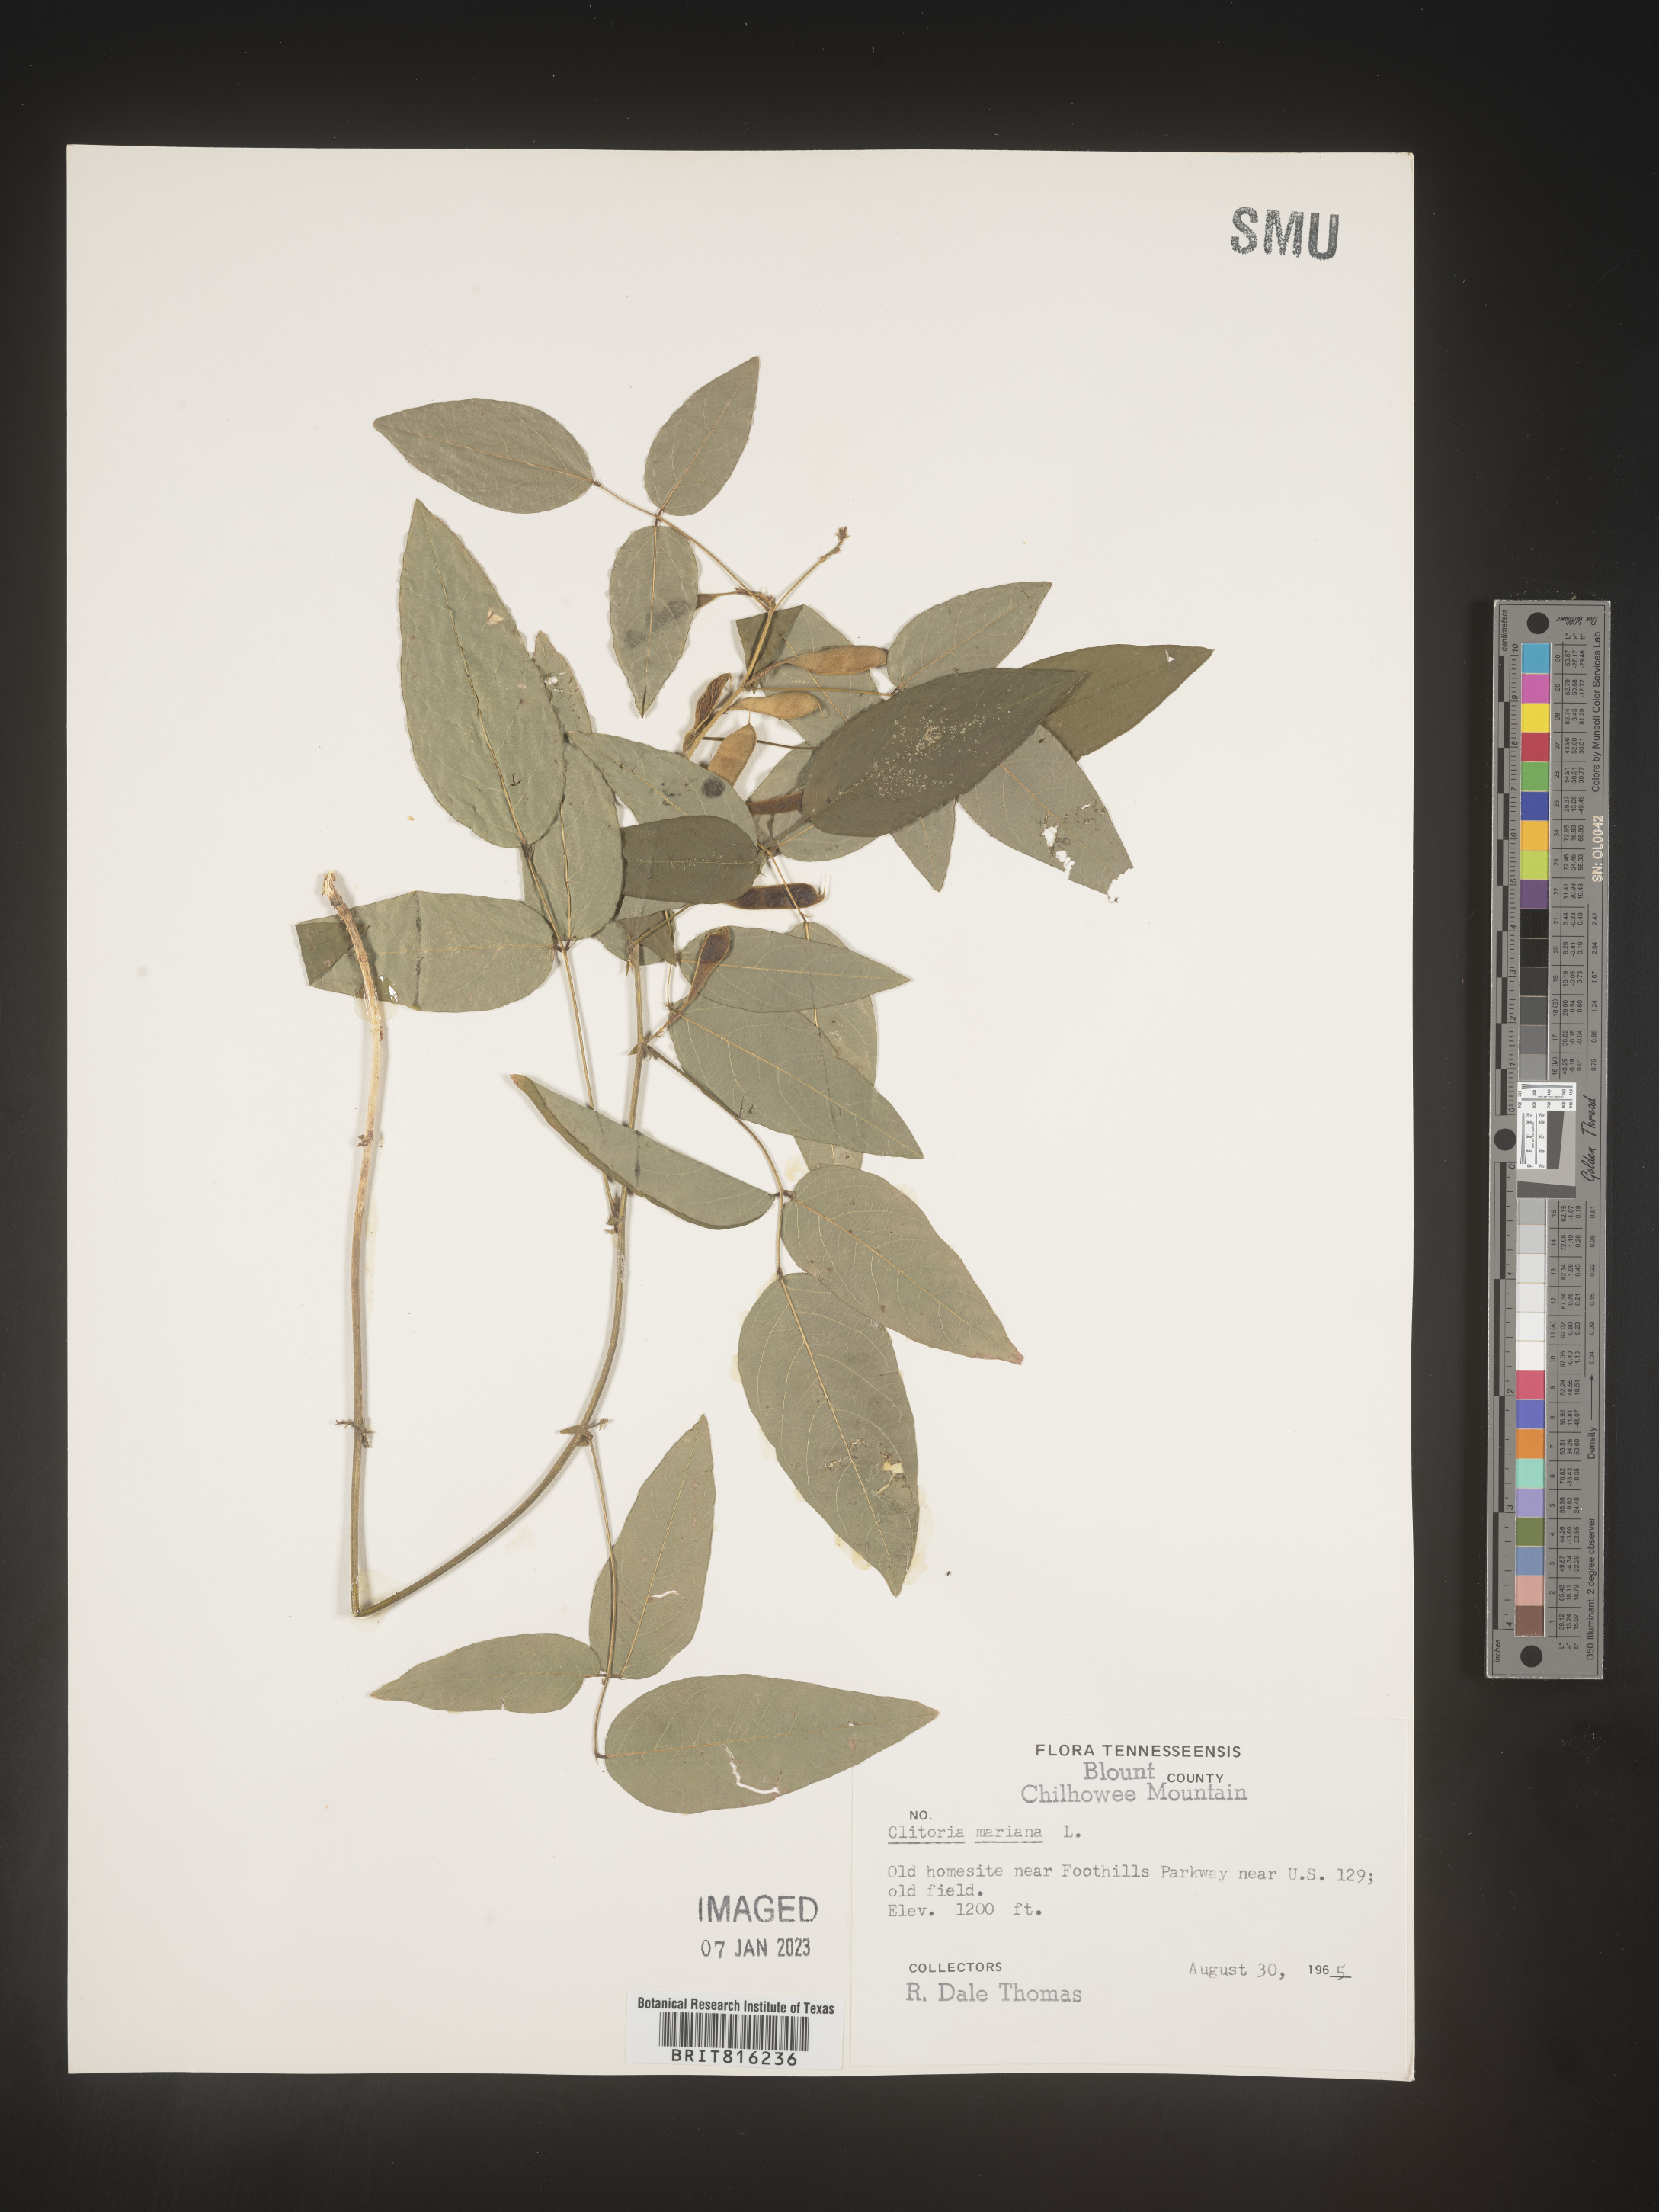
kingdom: Plantae
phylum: Tracheophyta
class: Magnoliopsida
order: Fabales
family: Fabaceae
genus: Clitoria
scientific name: Clitoria mariana
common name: Butterfly-pea
